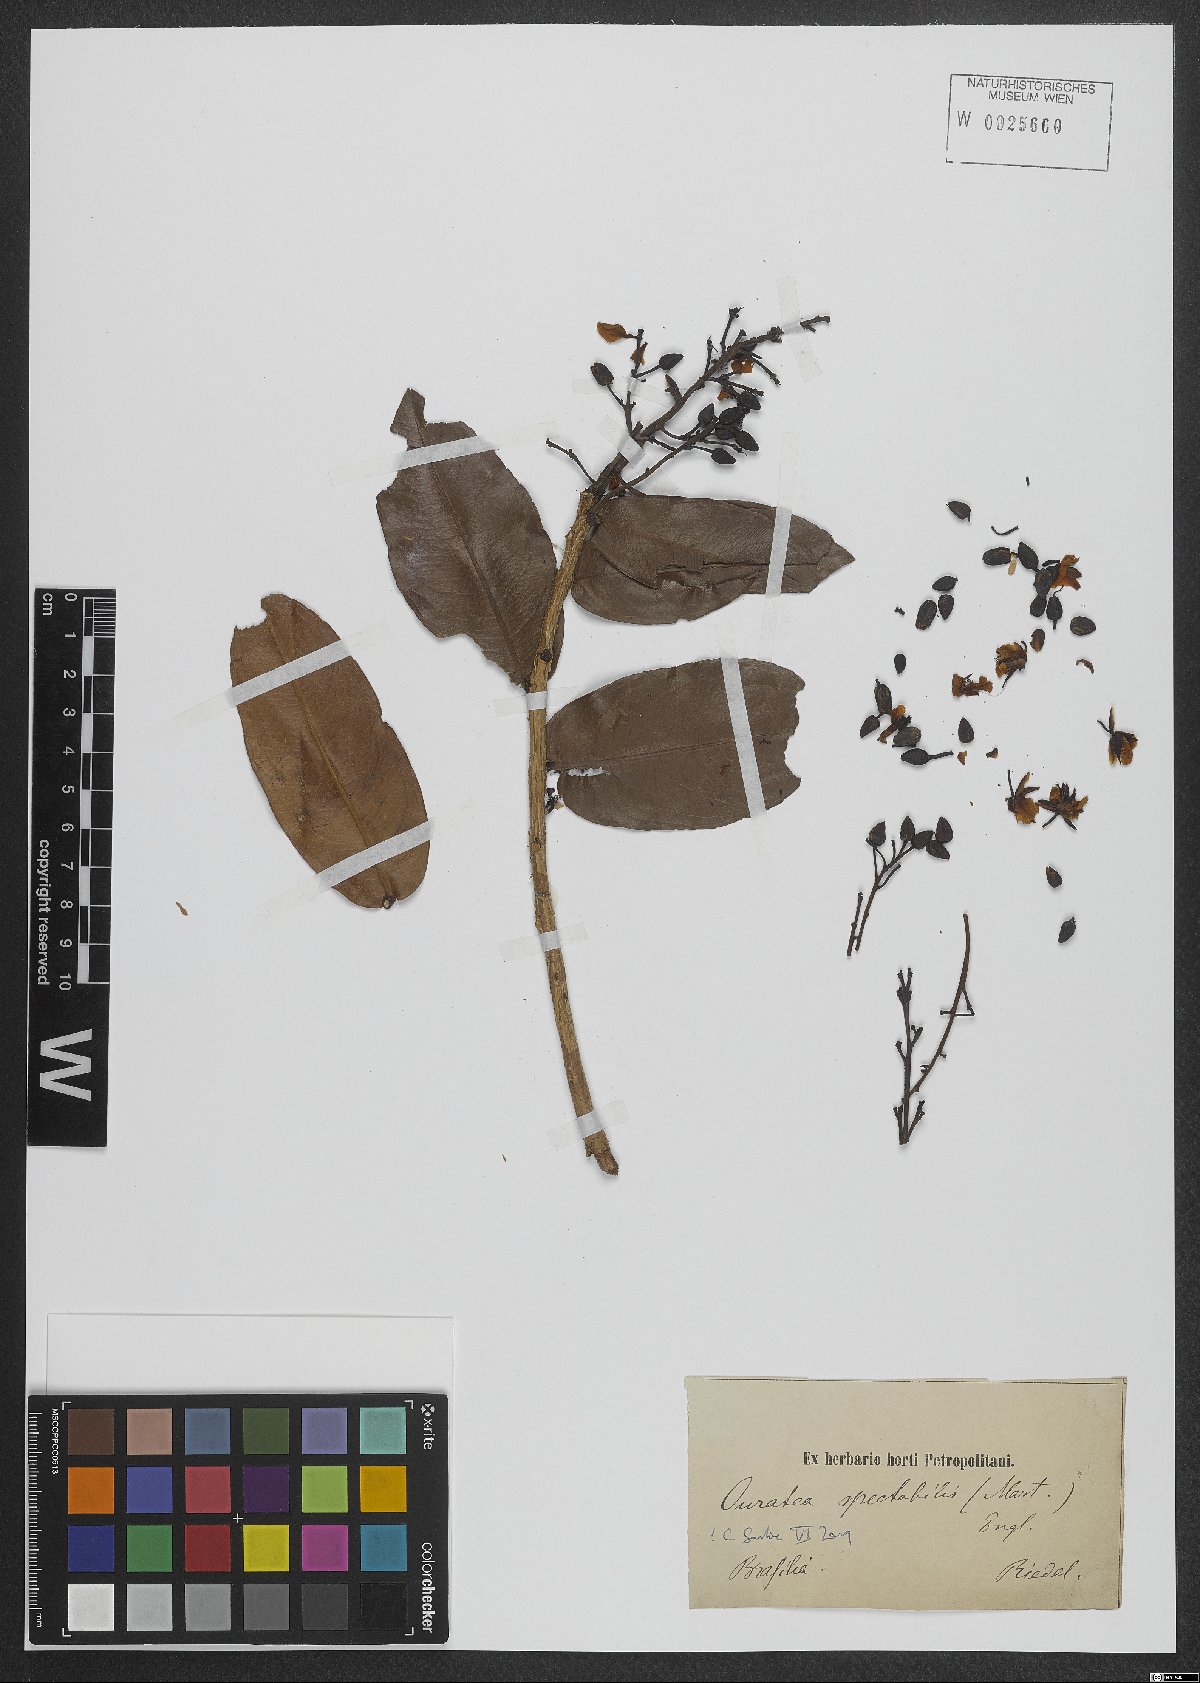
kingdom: Plantae
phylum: Tracheophyta
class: Magnoliopsida
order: Malpighiales
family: Ochnaceae
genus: Ouratea
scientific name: Ouratea spectabilis
